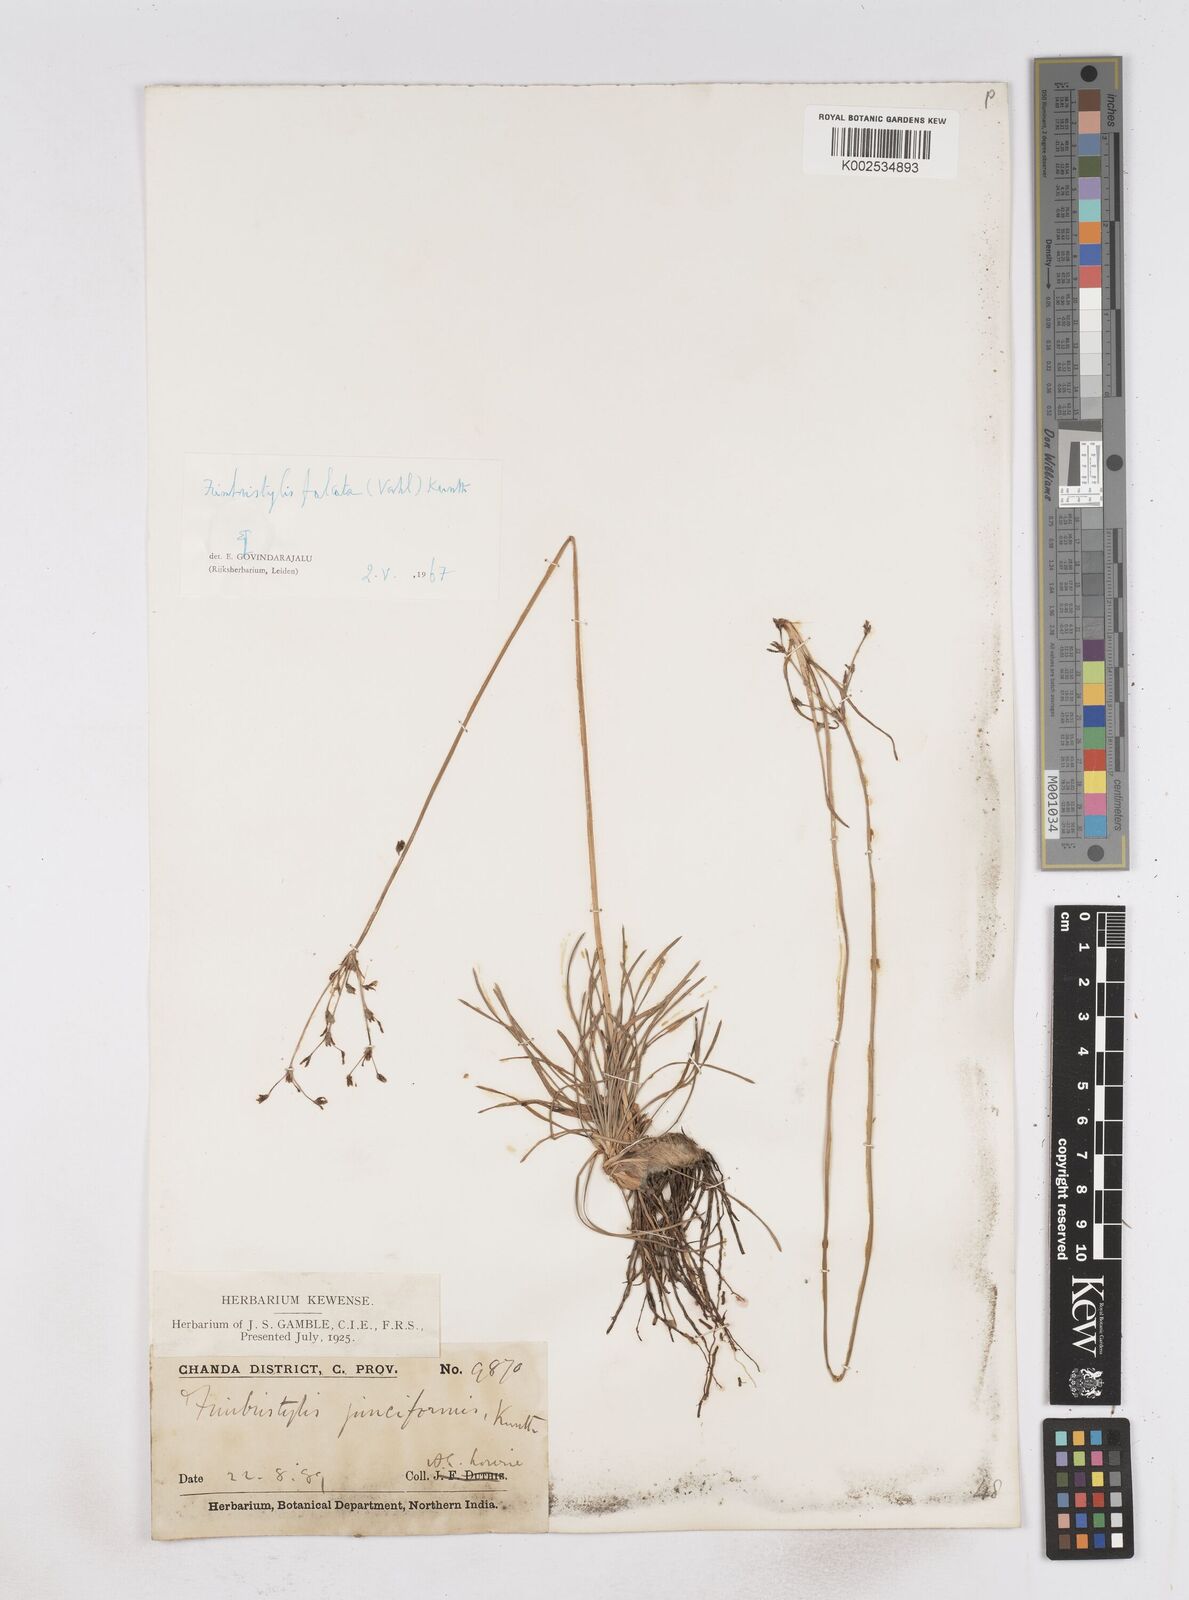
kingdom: Plantae
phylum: Tracheophyta
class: Liliopsida
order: Poales
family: Cyperaceae
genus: Fimbristylis
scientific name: Fimbristylis falcata
